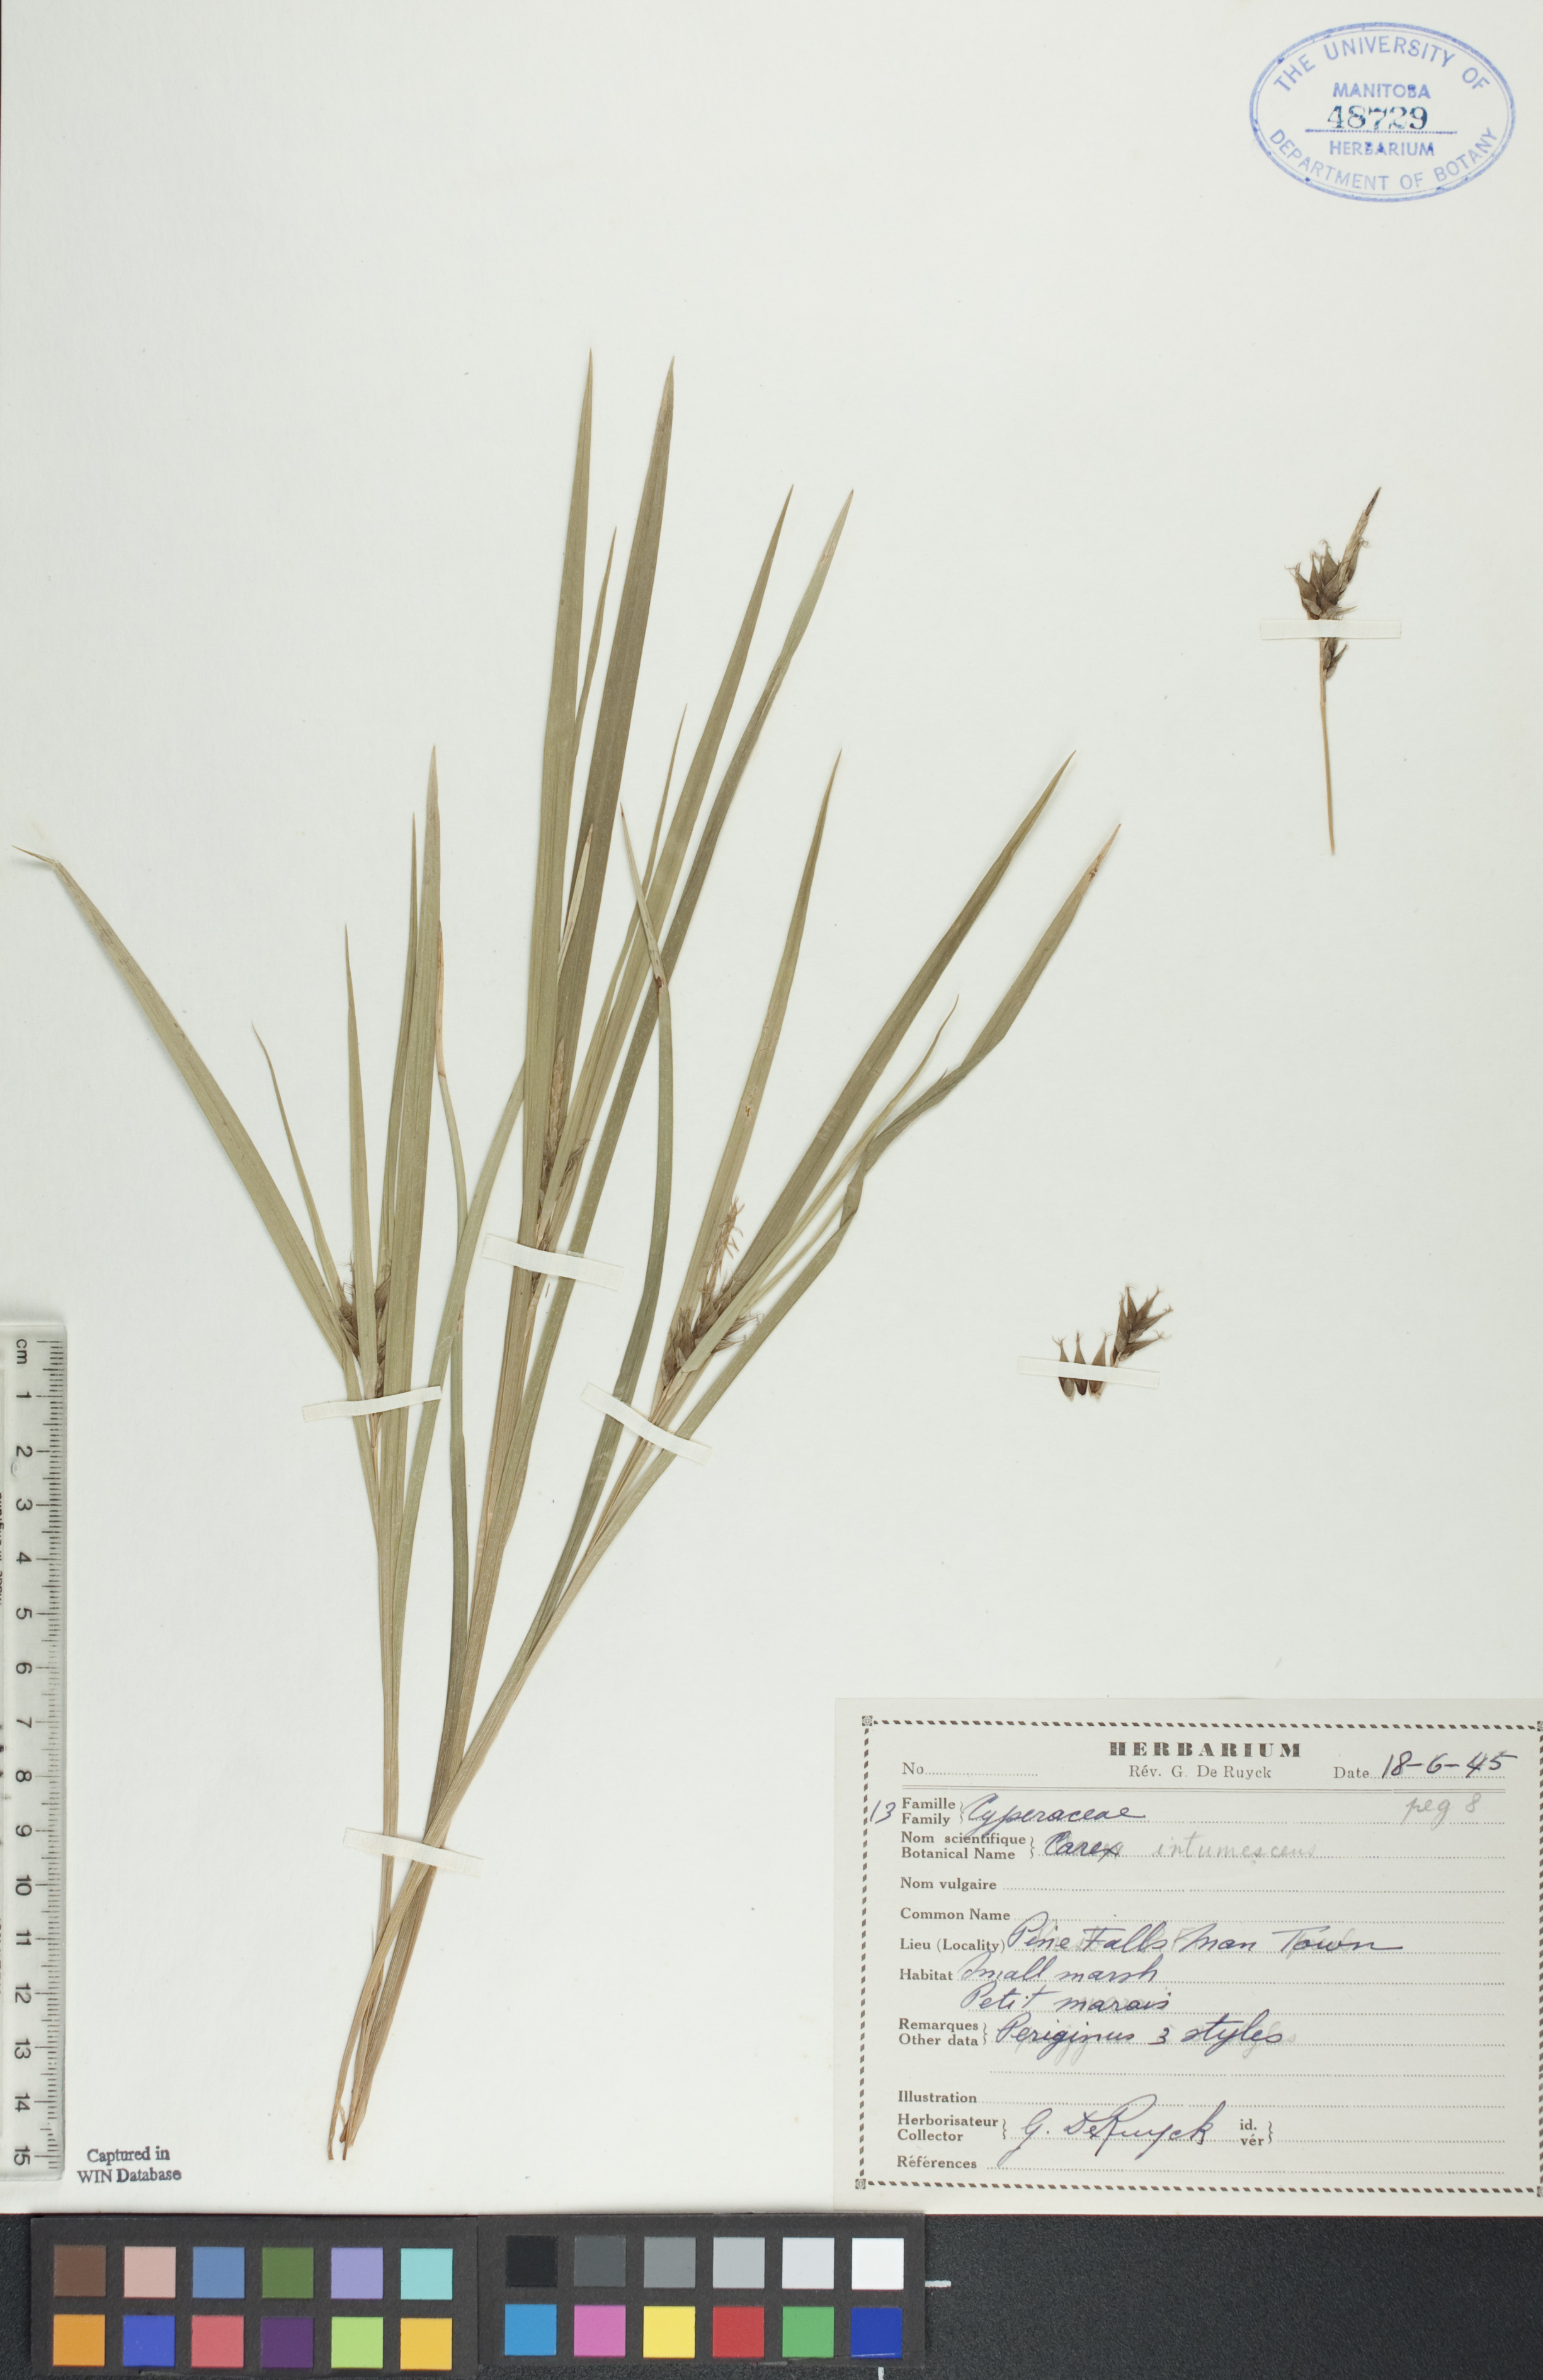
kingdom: Plantae
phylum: Tracheophyta
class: Liliopsida
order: Poales
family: Cyperaceae
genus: Carex
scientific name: Carex intumescens
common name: Greater bladder sedge
